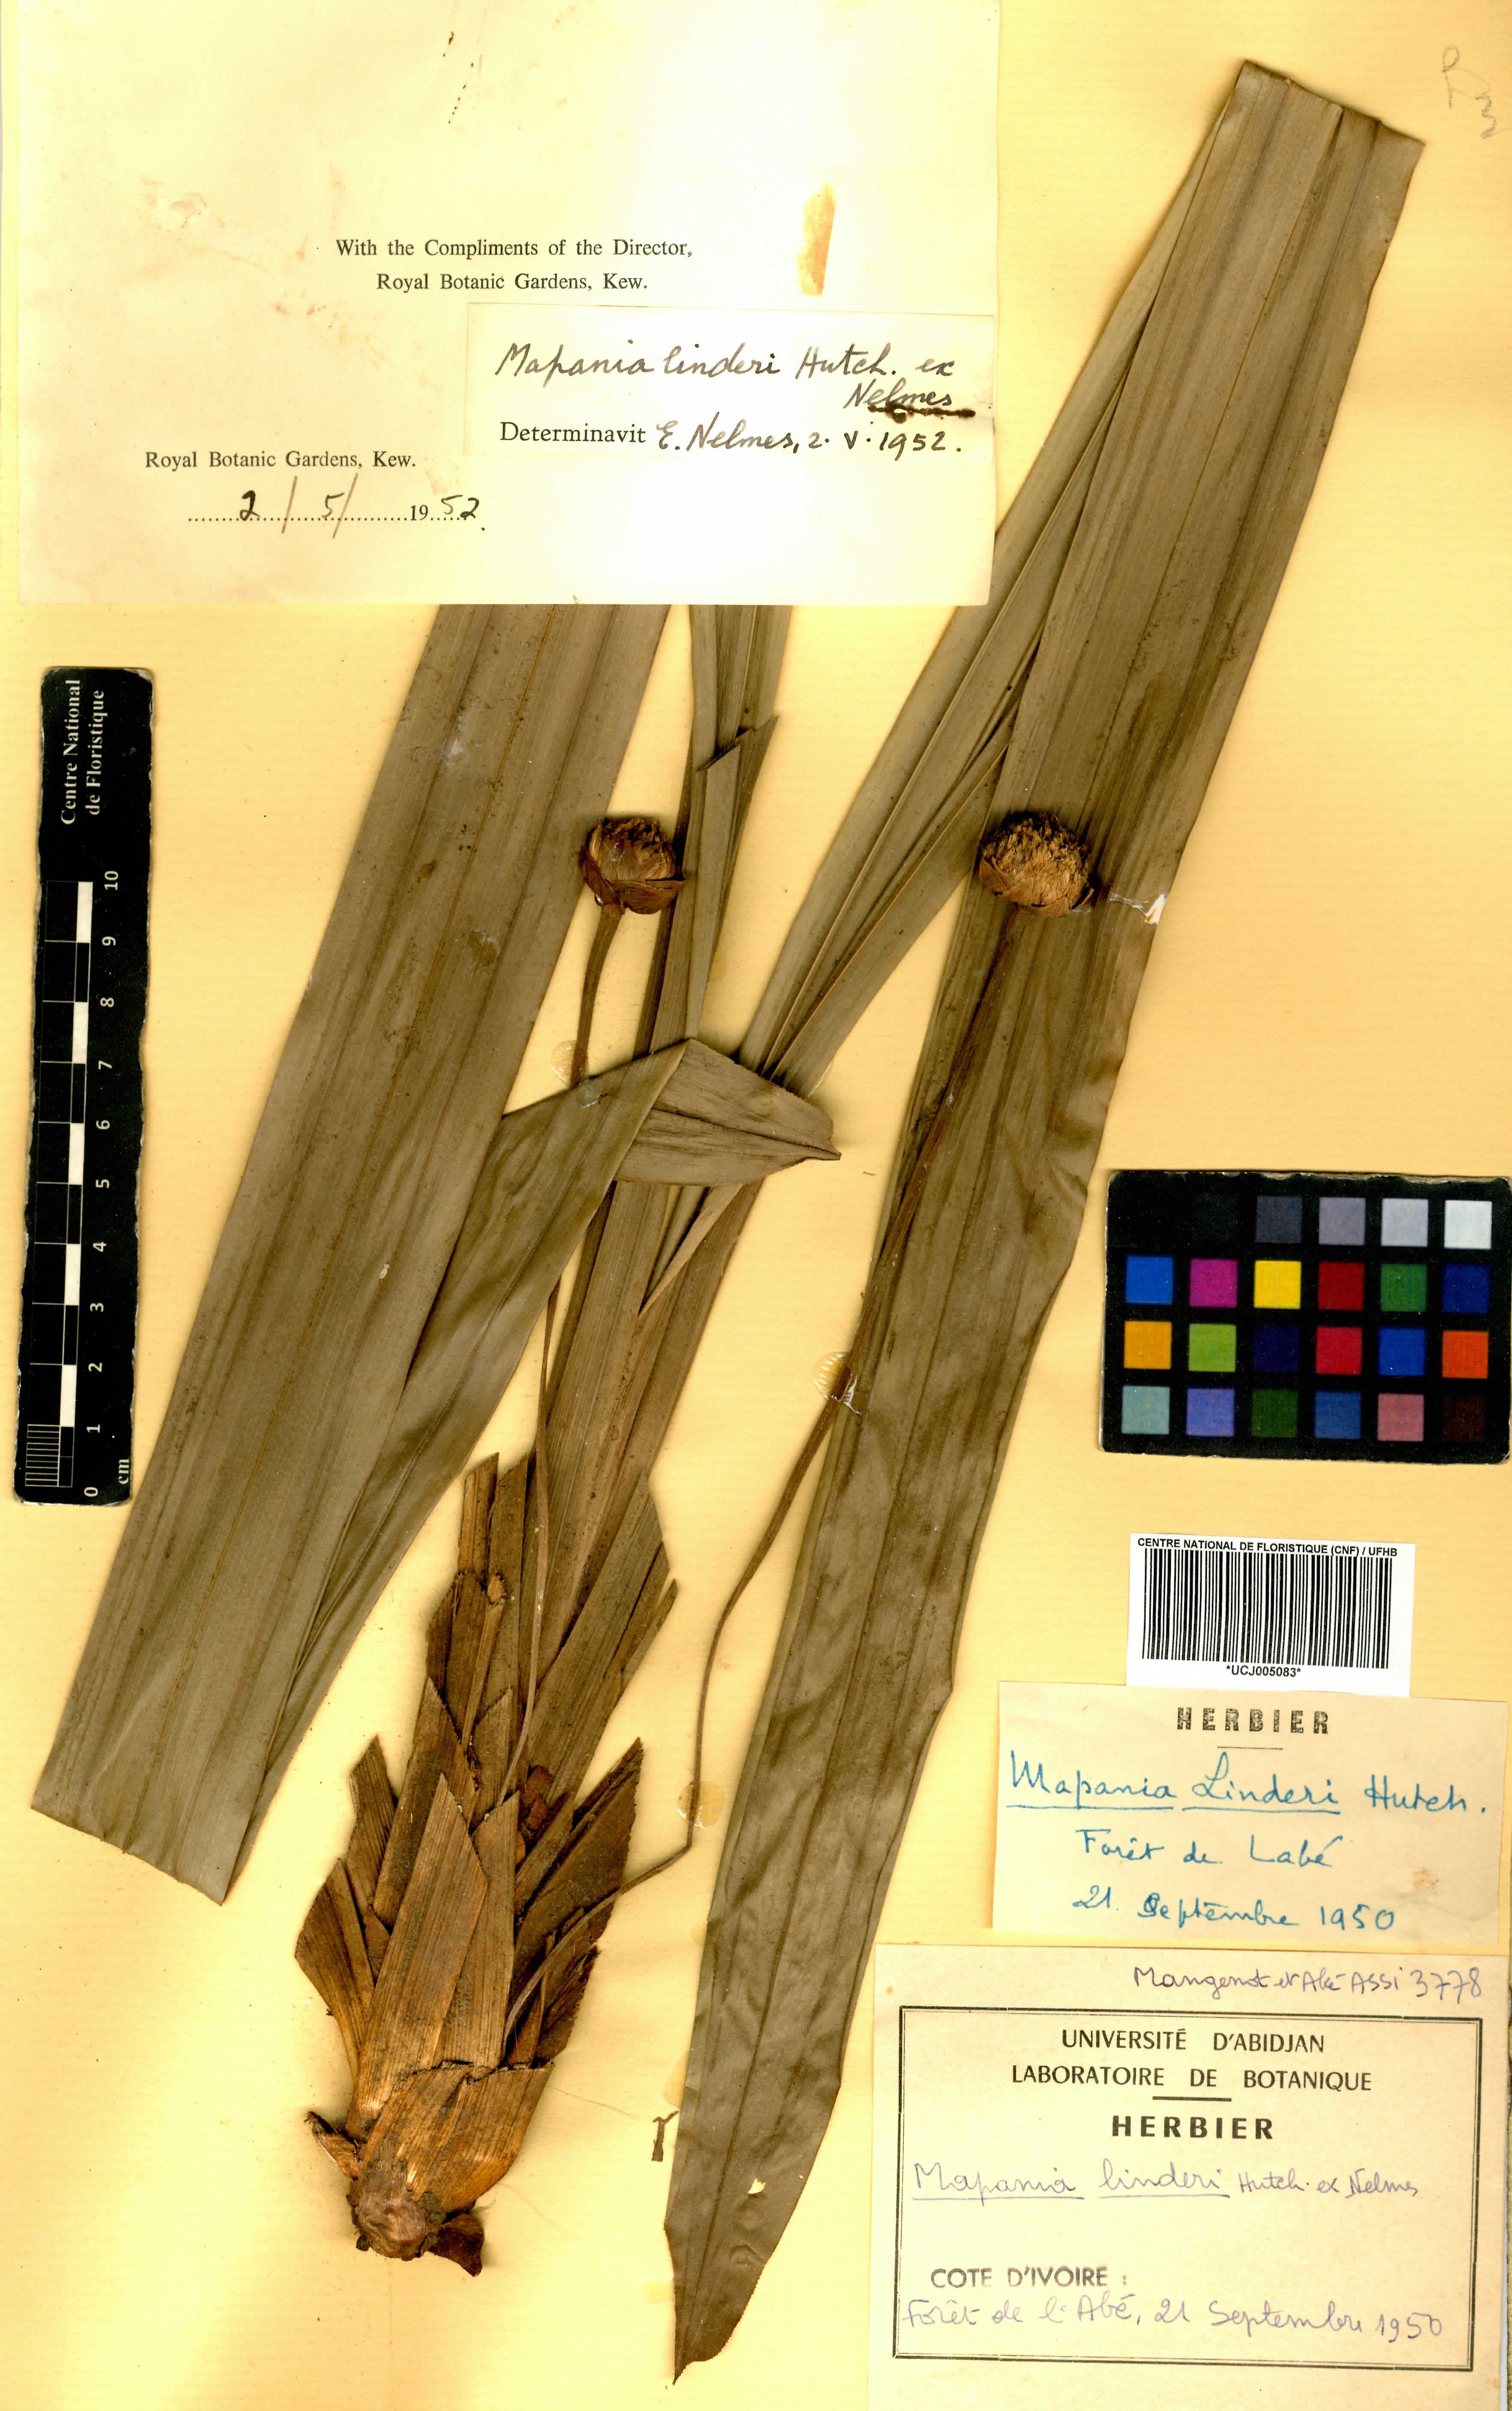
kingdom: Plantae
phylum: Tracheophyta
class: Liliopsida
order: Poales
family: Cyperaceae
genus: Mapania
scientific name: Mapania linderi
